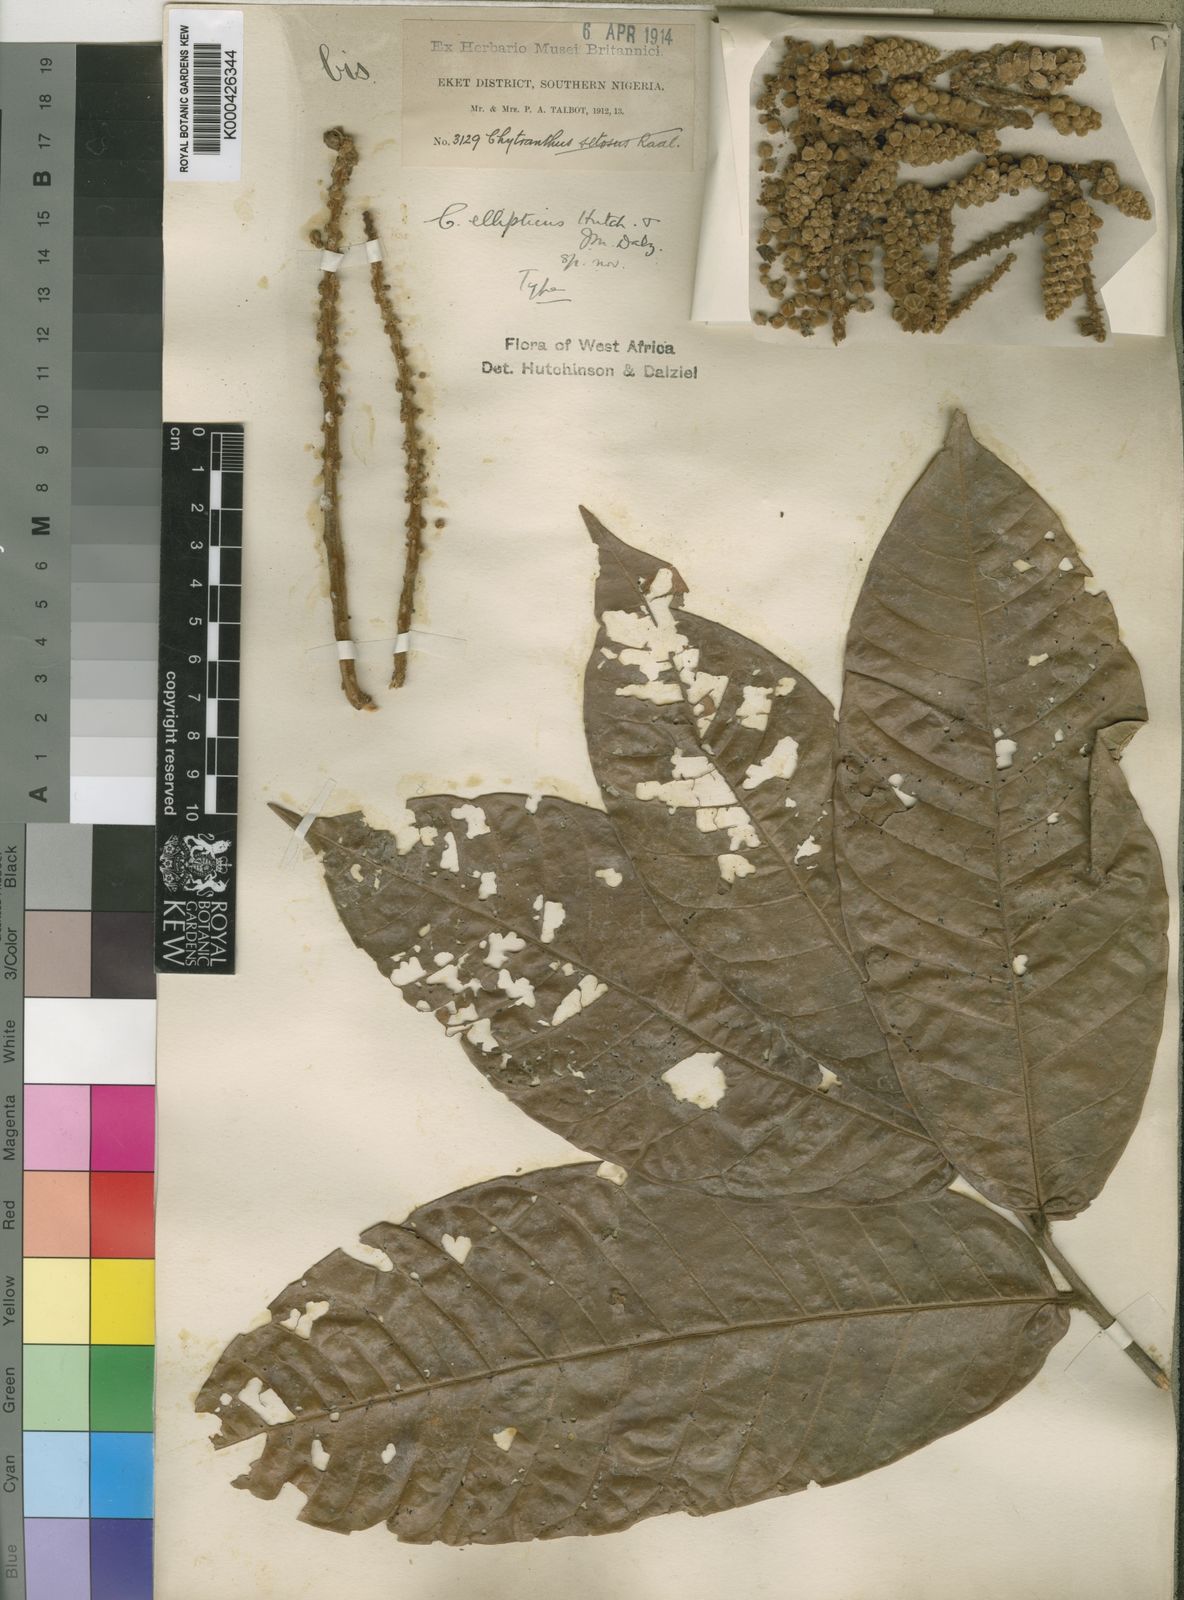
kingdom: Plantae
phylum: Tracheophyta
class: Magnoliopsida
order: Sapindales
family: Sapindaceae
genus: Chytranthus
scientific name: Chytranthus ellipticus
